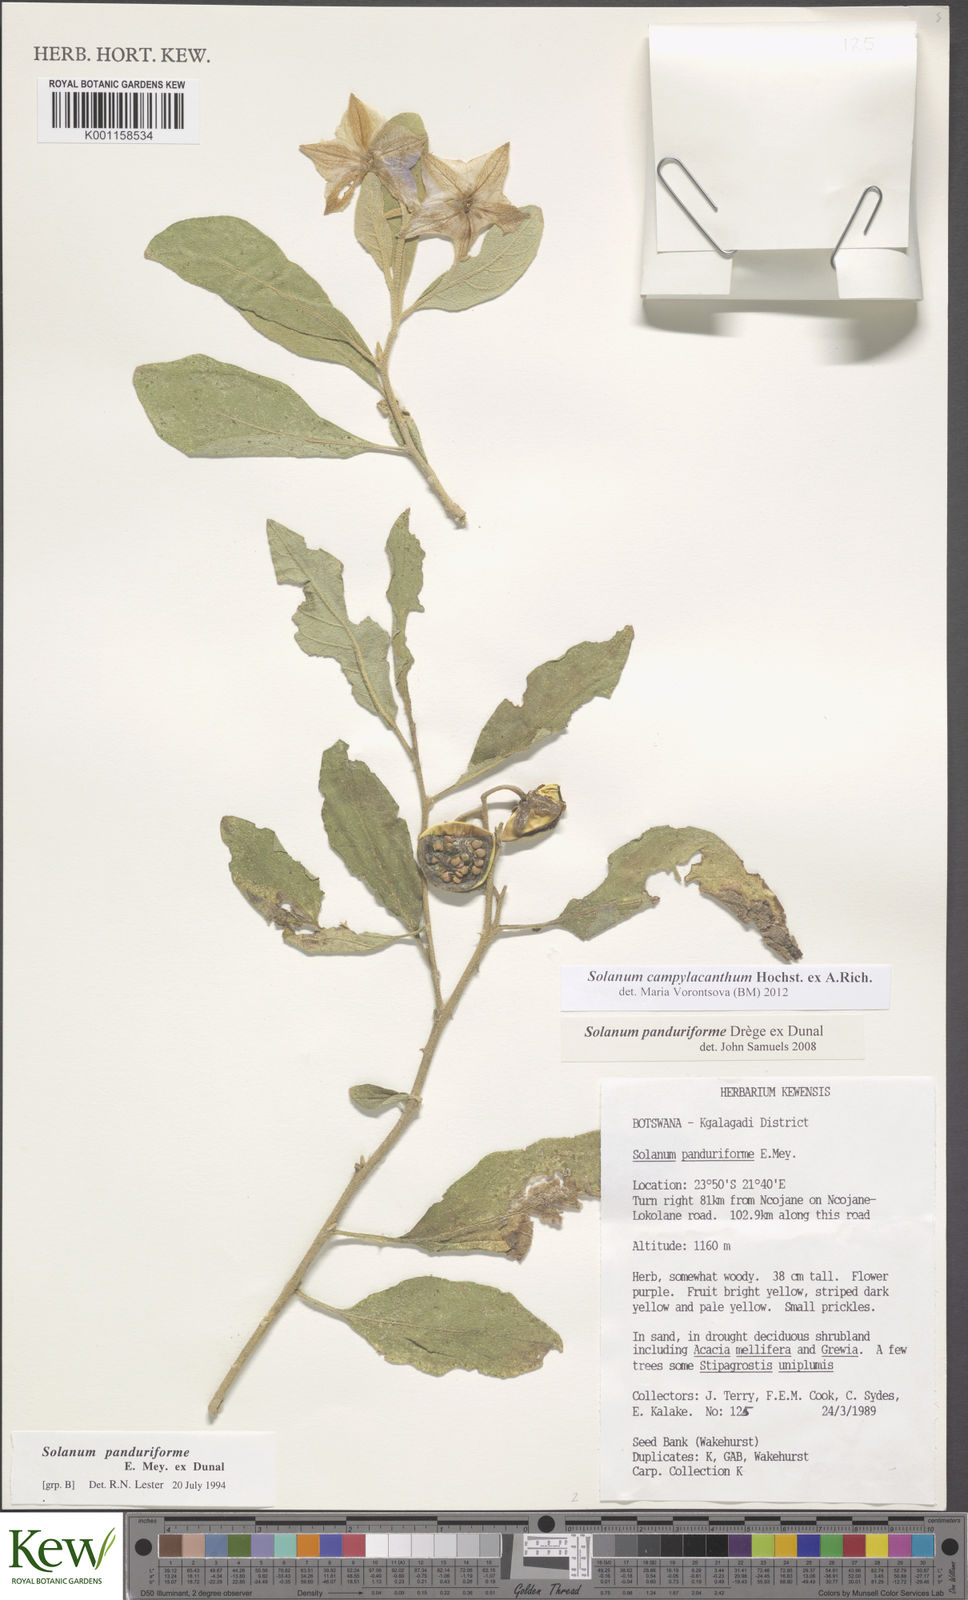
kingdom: Plantae
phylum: Tracheophyta
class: Magnoliopsida
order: Solanales
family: Solanaceae
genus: Solanum
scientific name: Solanum campylacanthum
